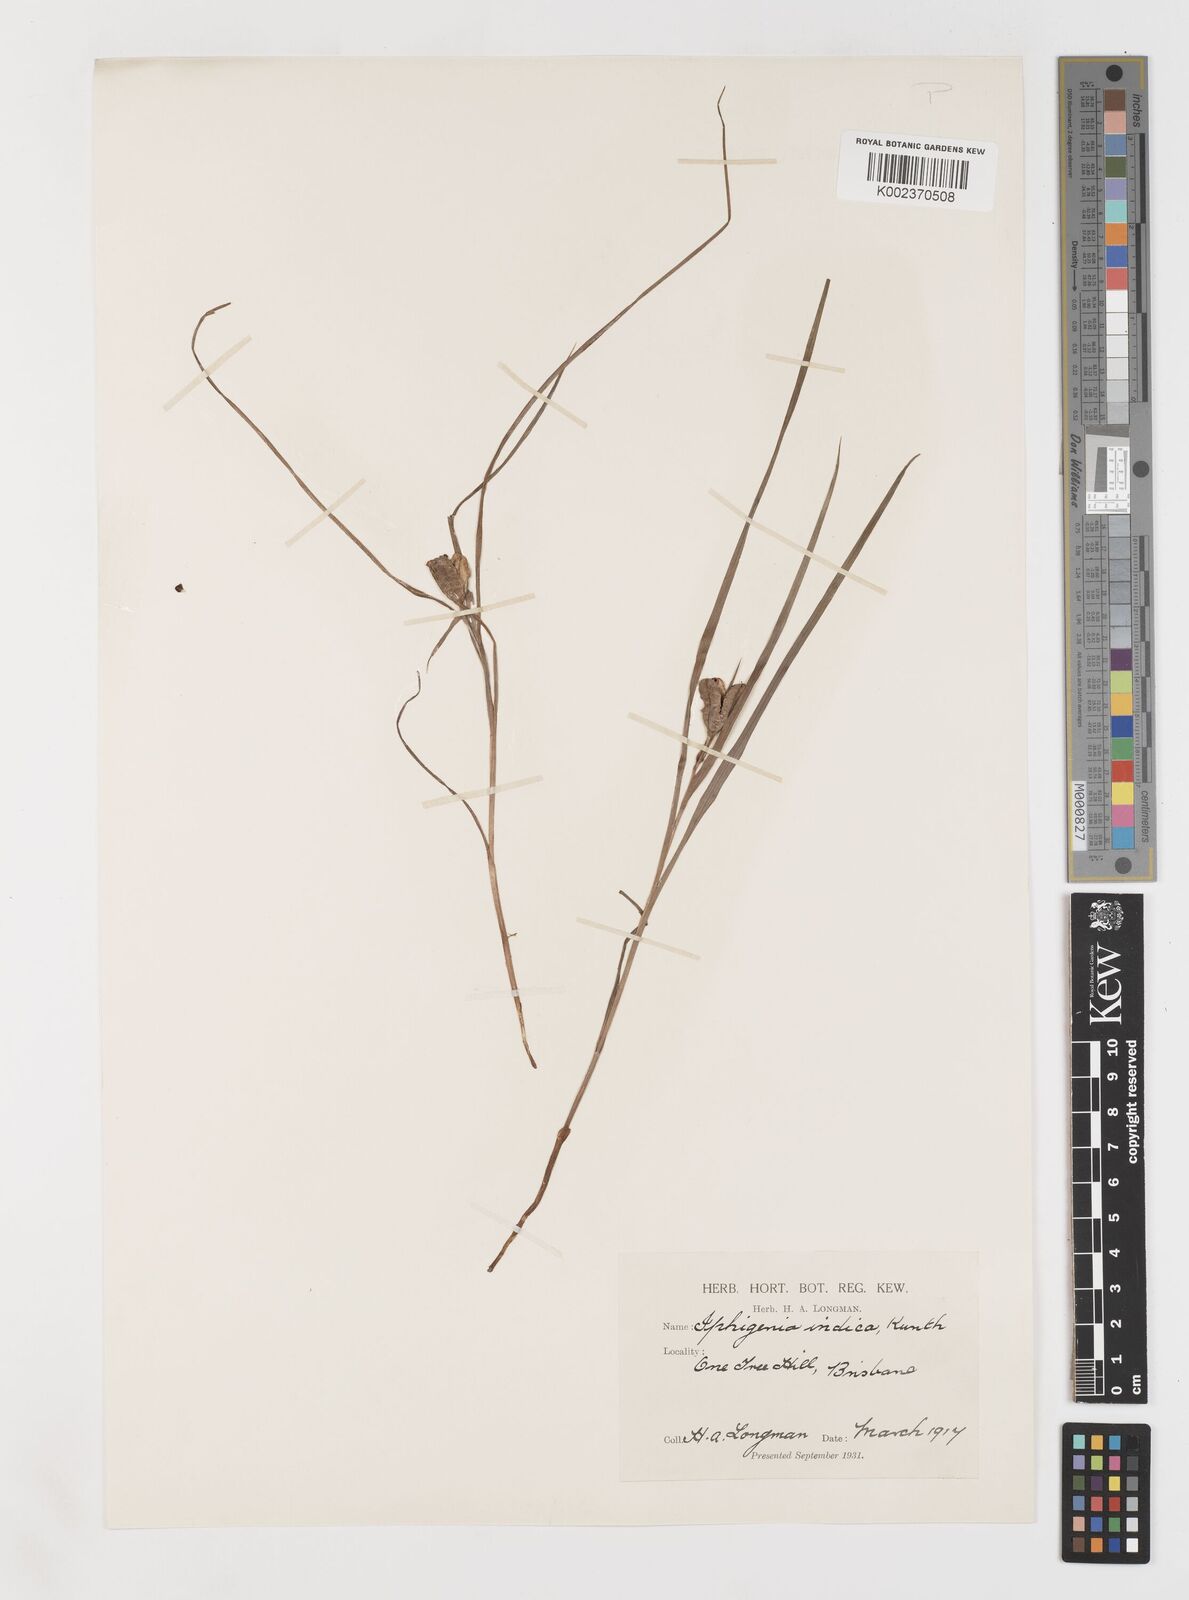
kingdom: Plantae
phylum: Tracheophyta
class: Liliopsida
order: Liliales
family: Colchicaceae
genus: Iphigenia
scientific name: Iphigenia indica
